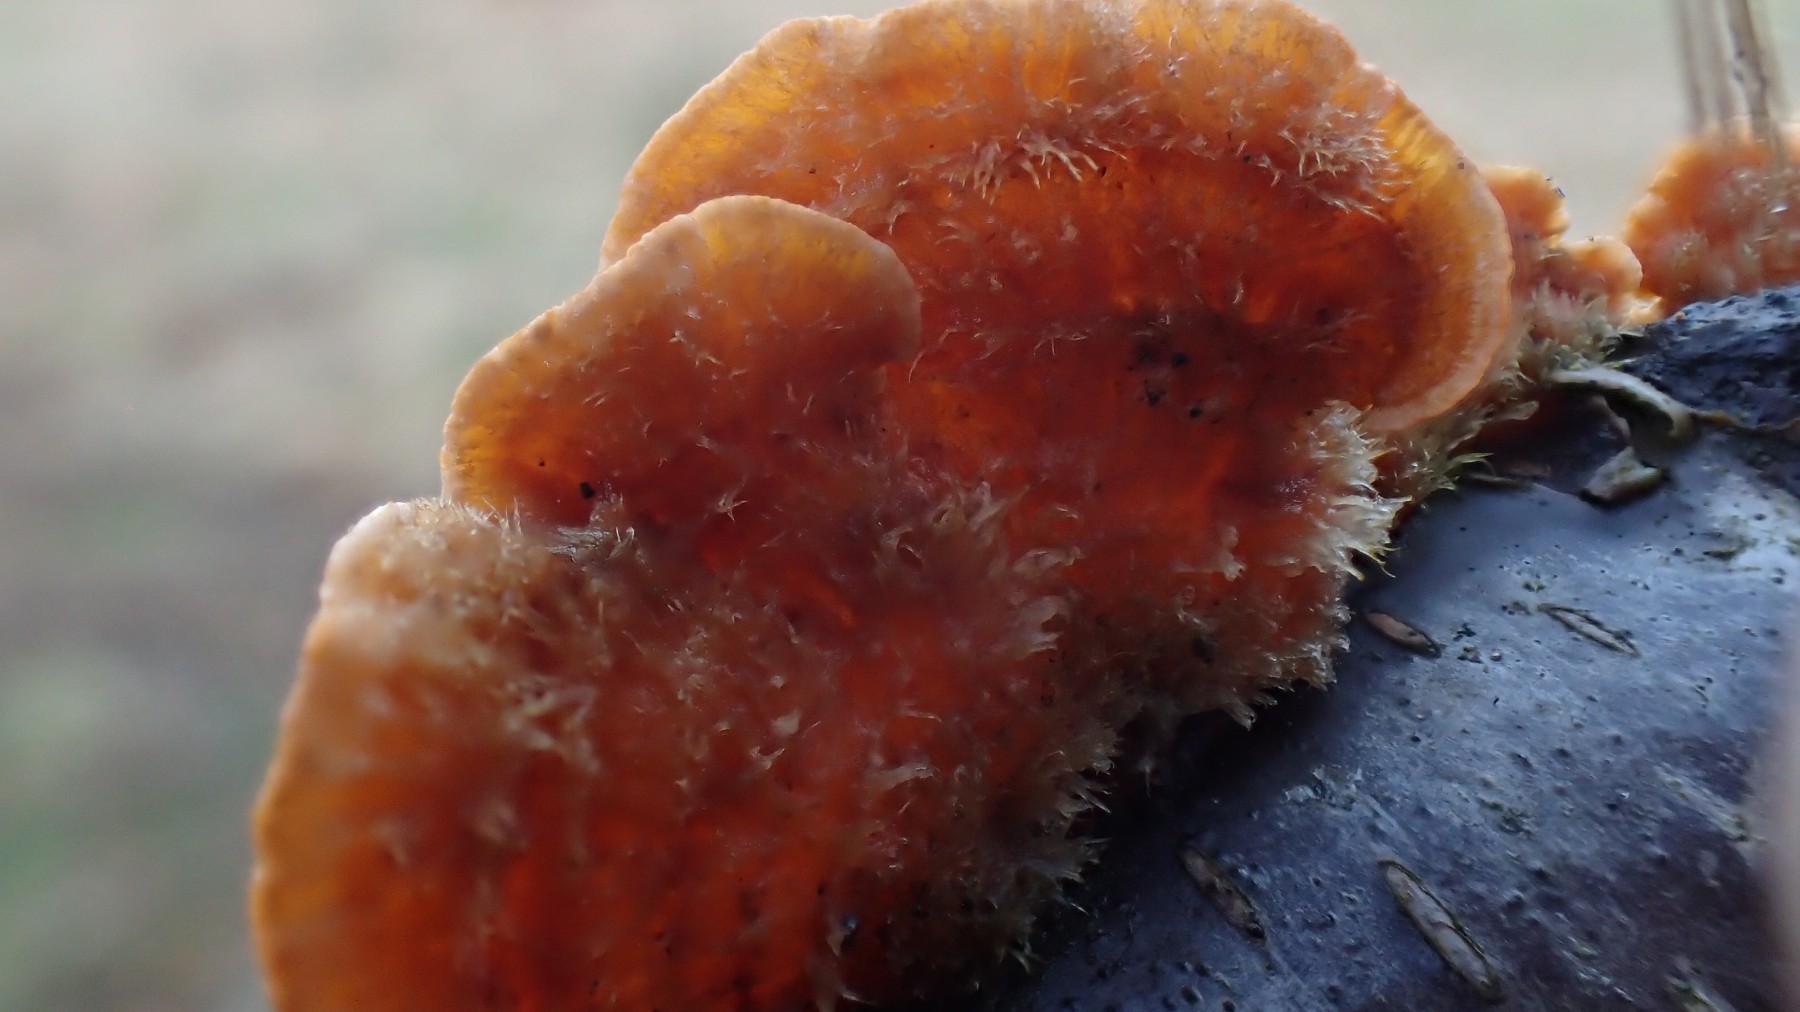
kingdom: Fungi
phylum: Basidiomycota
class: Agaricomycetes
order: Russulales
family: Stereaceae
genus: Stereum
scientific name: Stereum hirsutum
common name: håret lædersvamp
